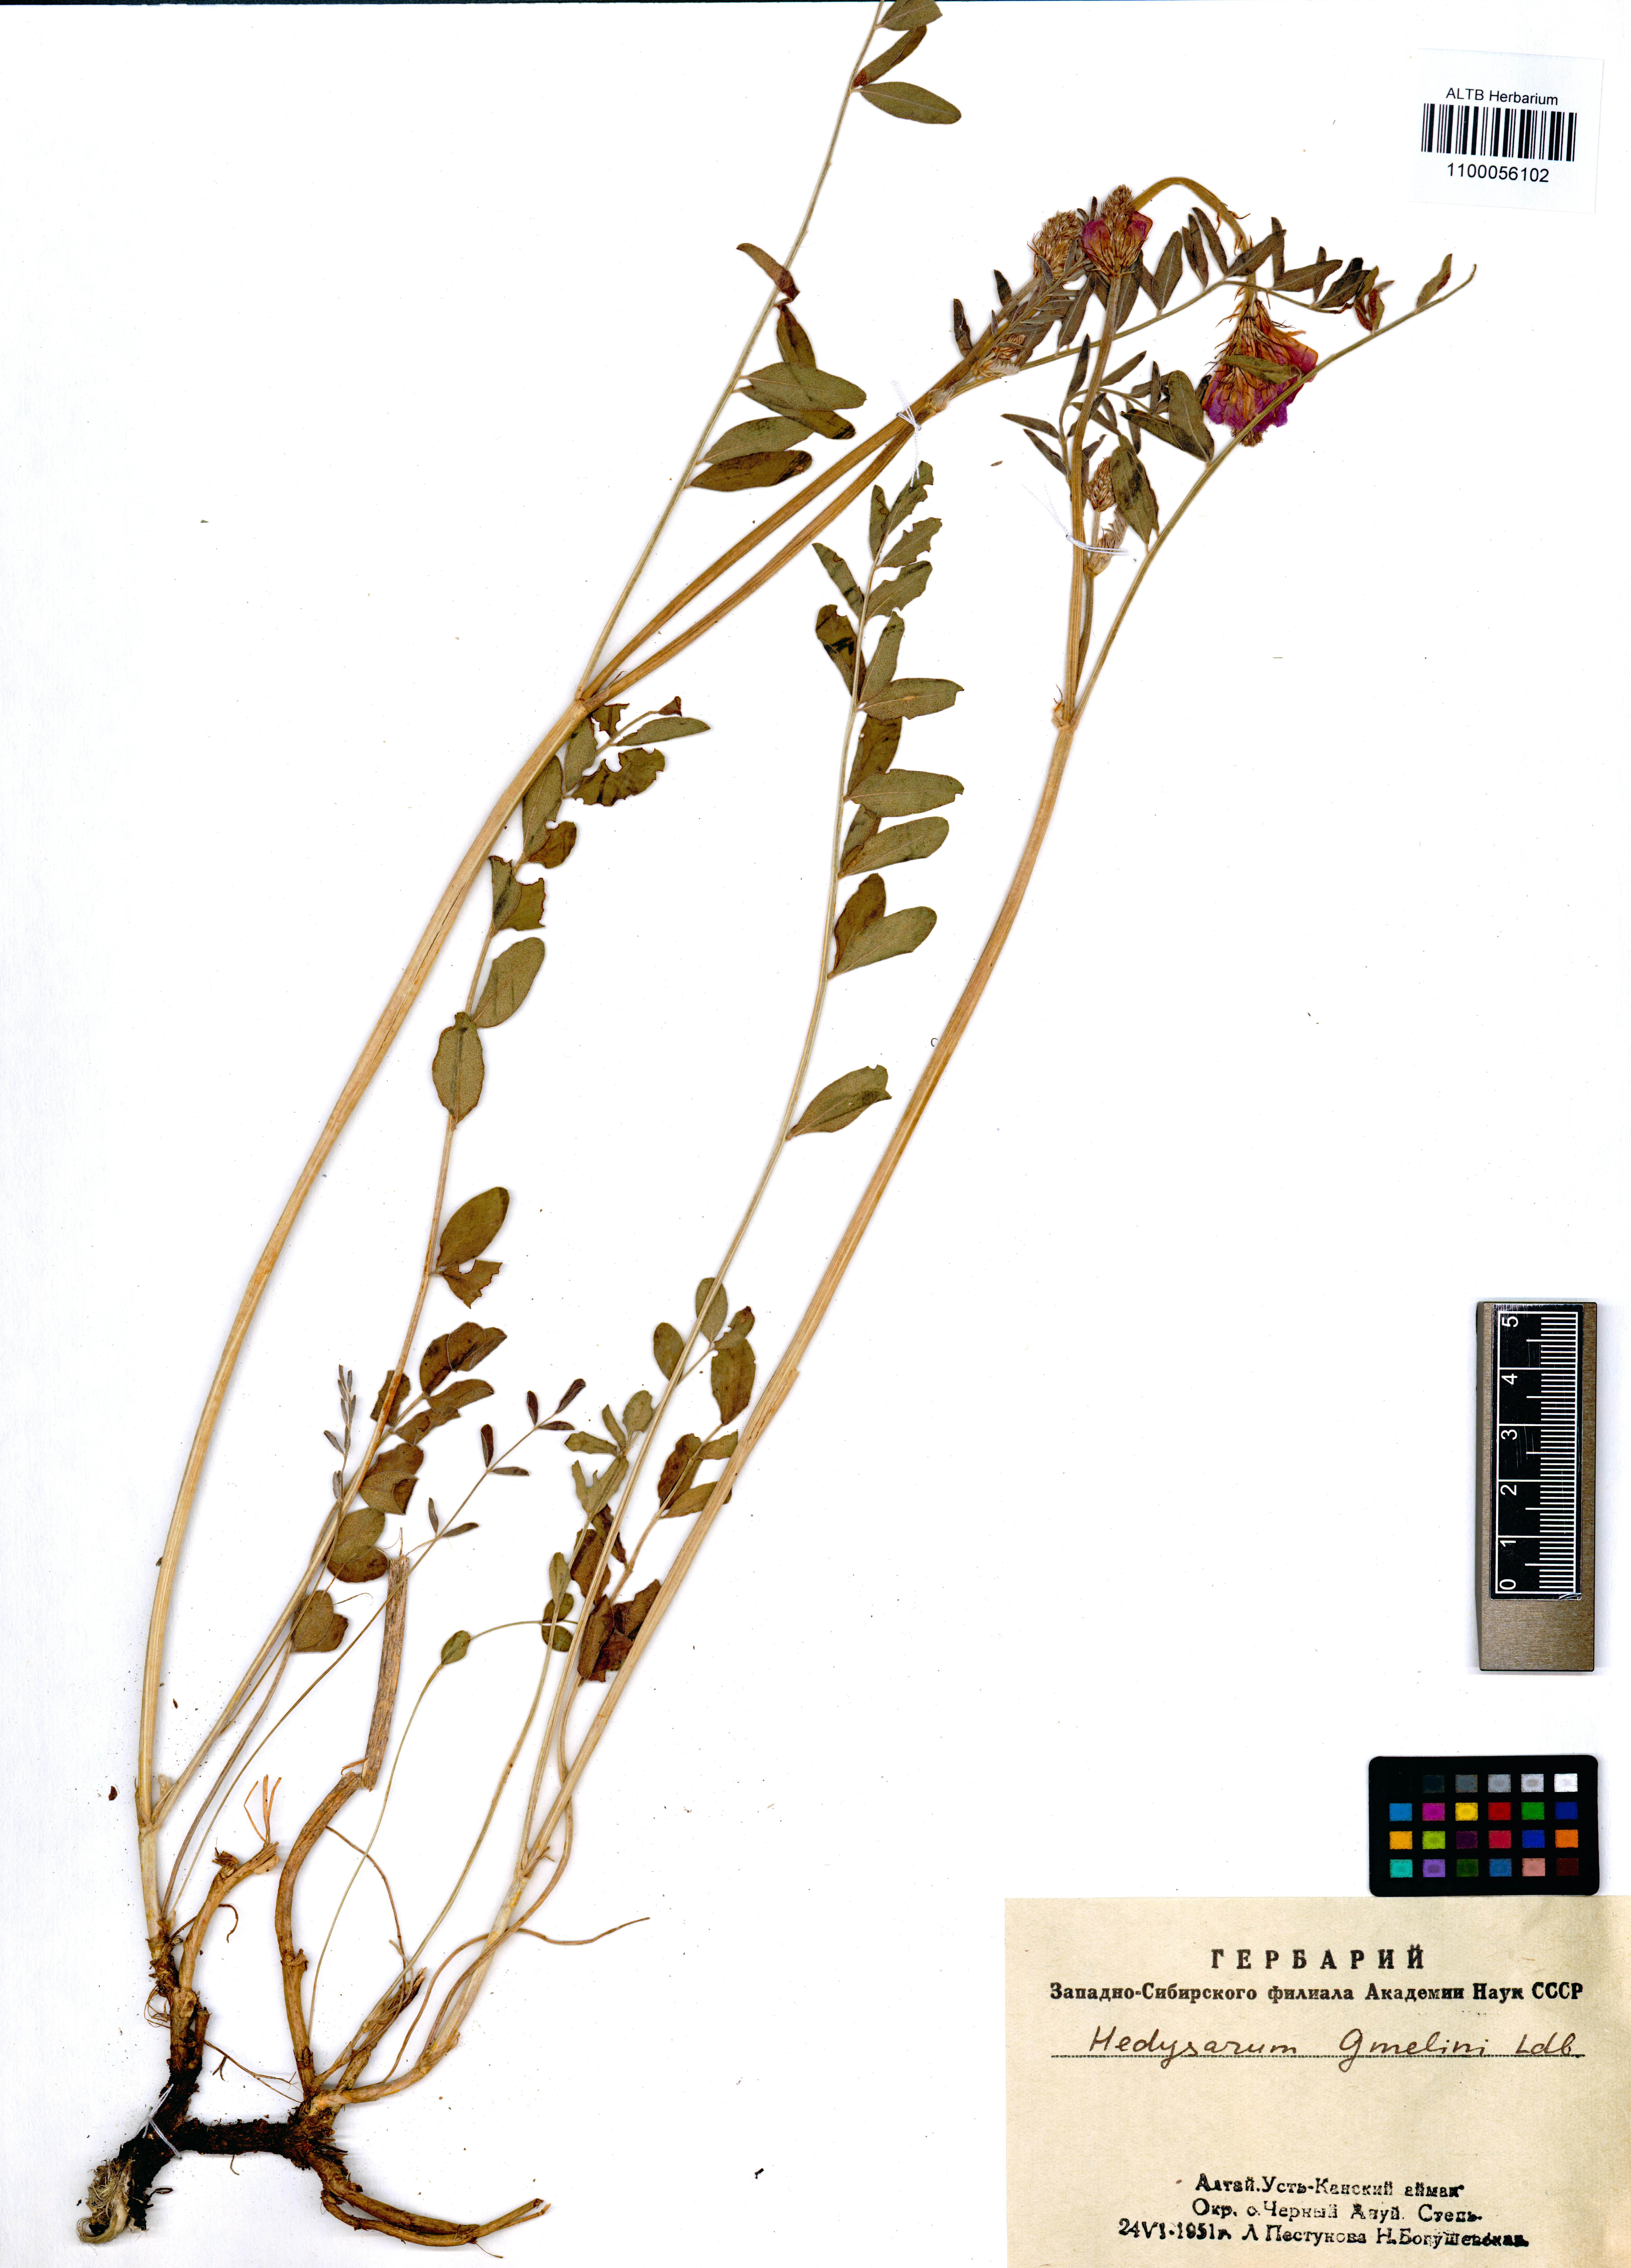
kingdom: Plantae
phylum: Tracheophyta
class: Magnoliopsida
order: Fabales
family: Fabaceae
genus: Hedysarum
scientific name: Hedysarum gmelinii
